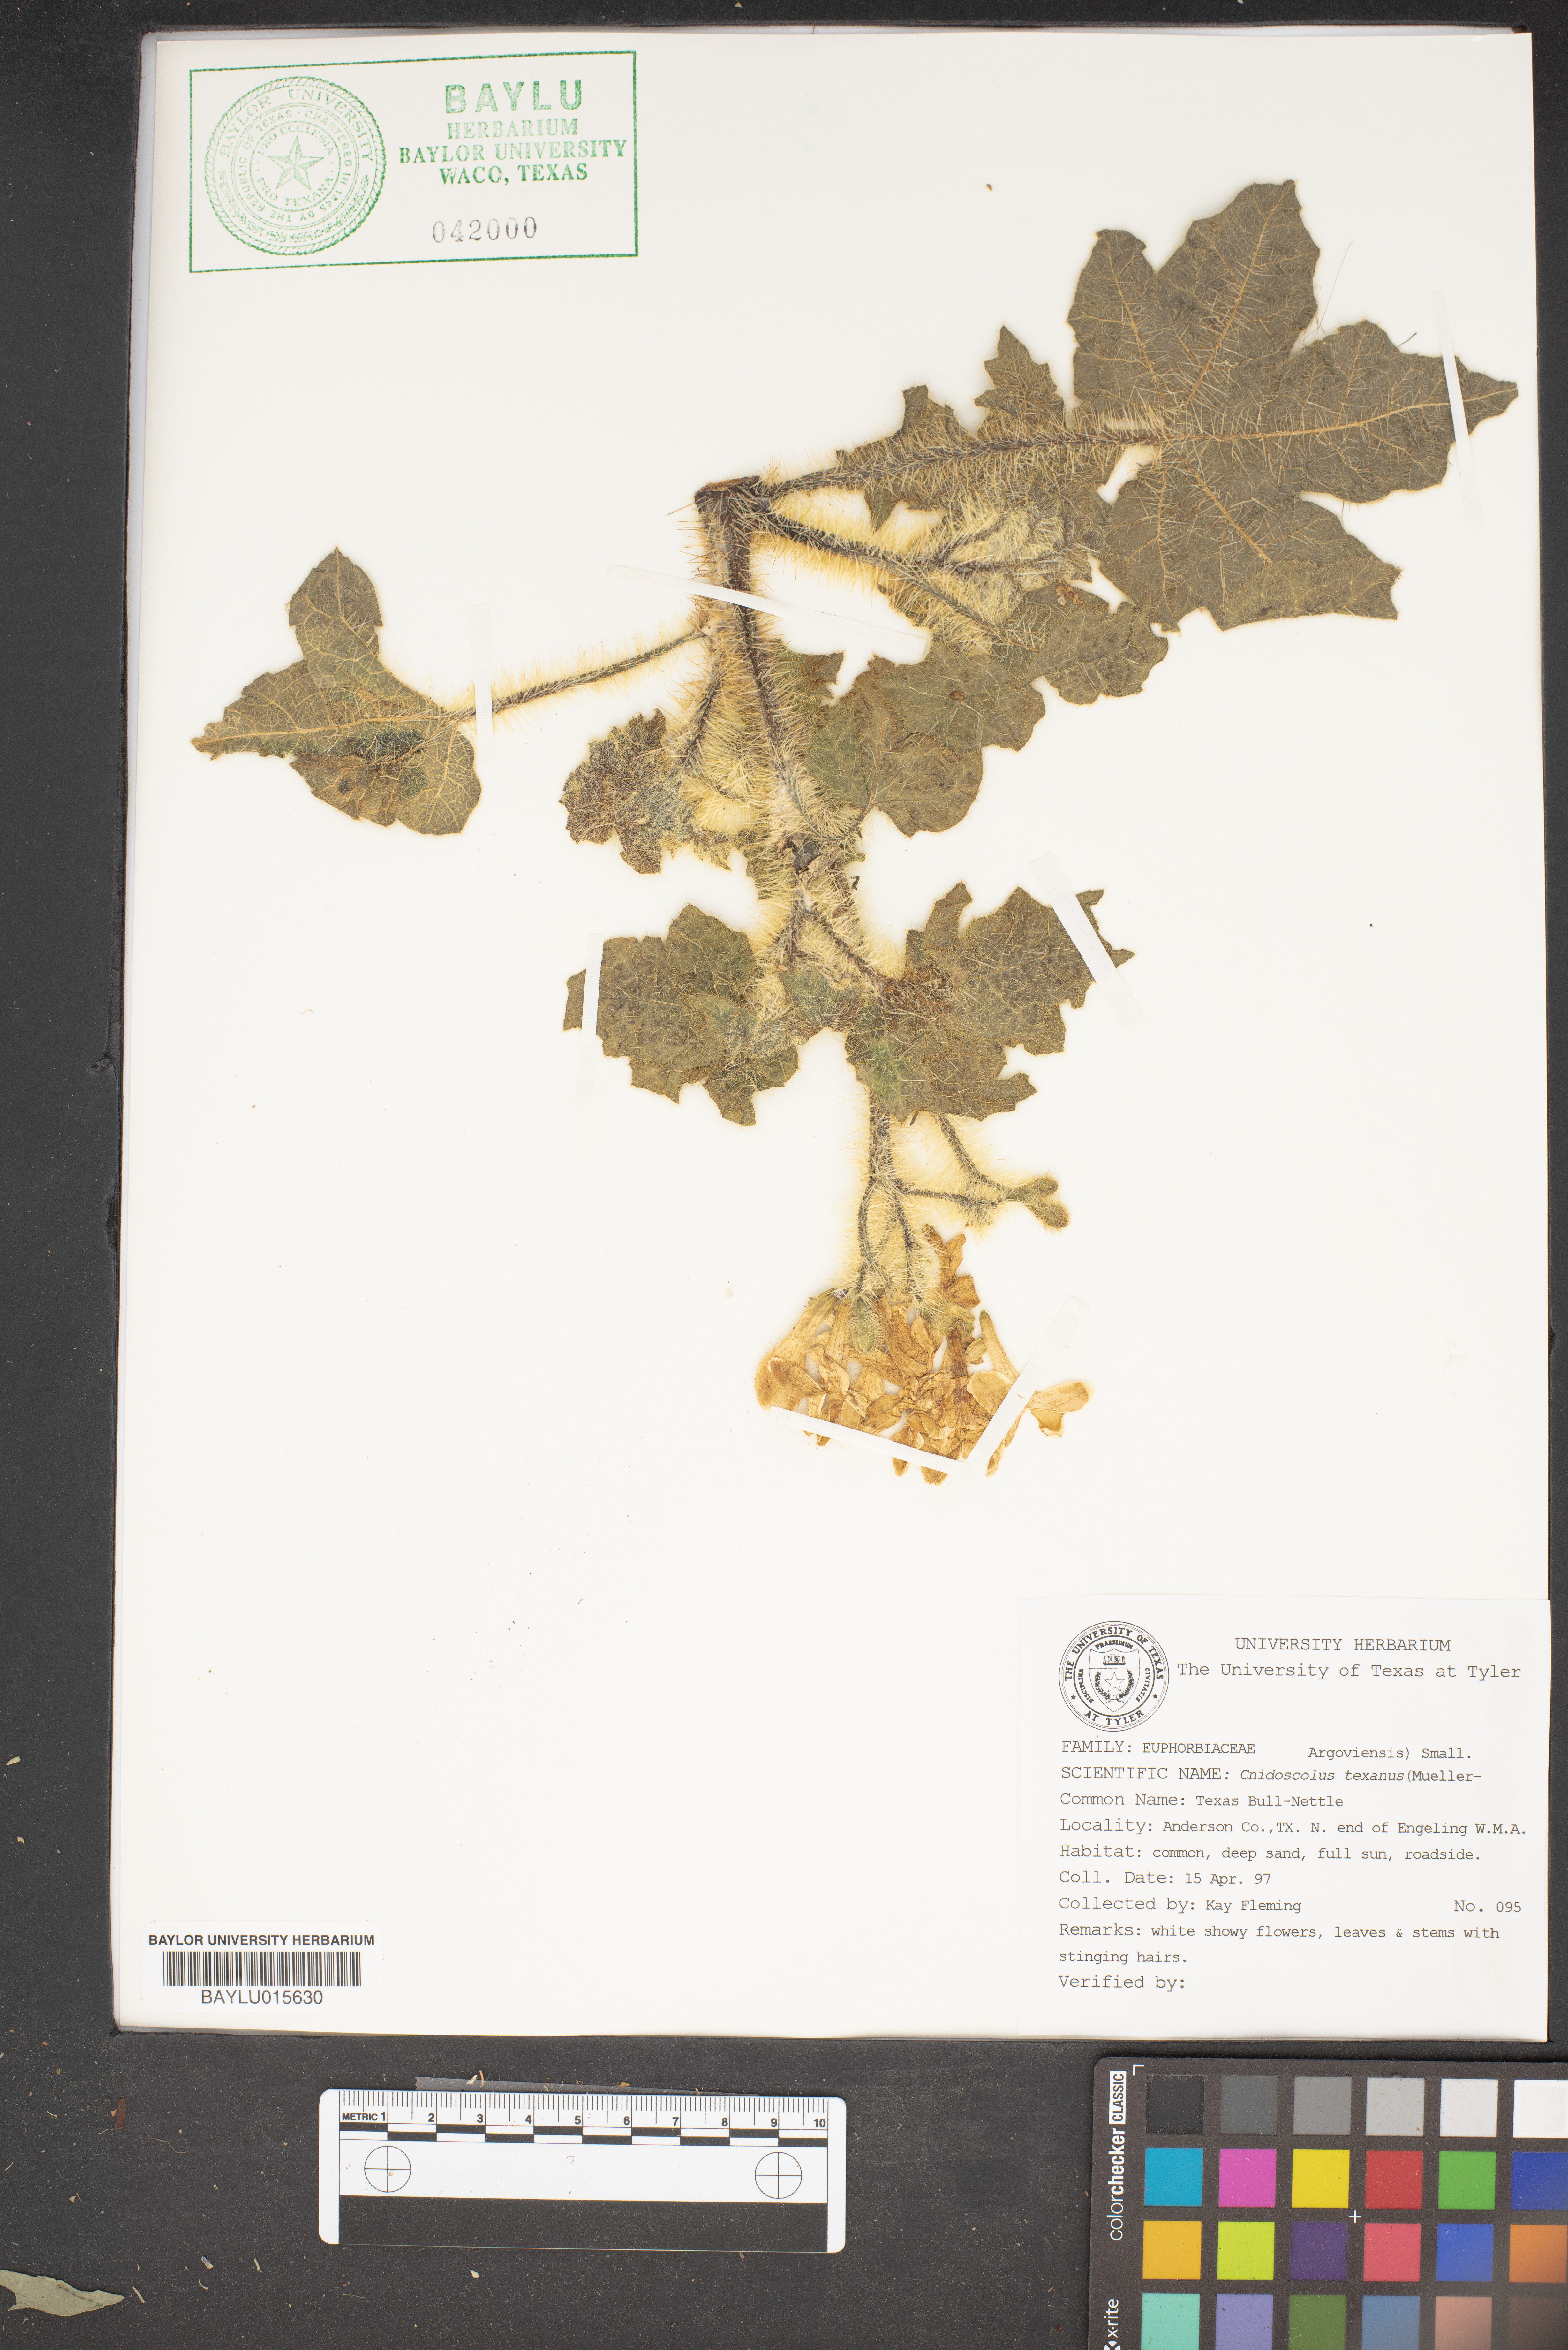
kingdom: Plantae
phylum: Tracheophyta
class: Magnoliopsida
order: Malpighiales
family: Euphorbiaceae
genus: Cnidoscolus
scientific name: Cnidoscolus texanus
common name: Texas bull-nettle
